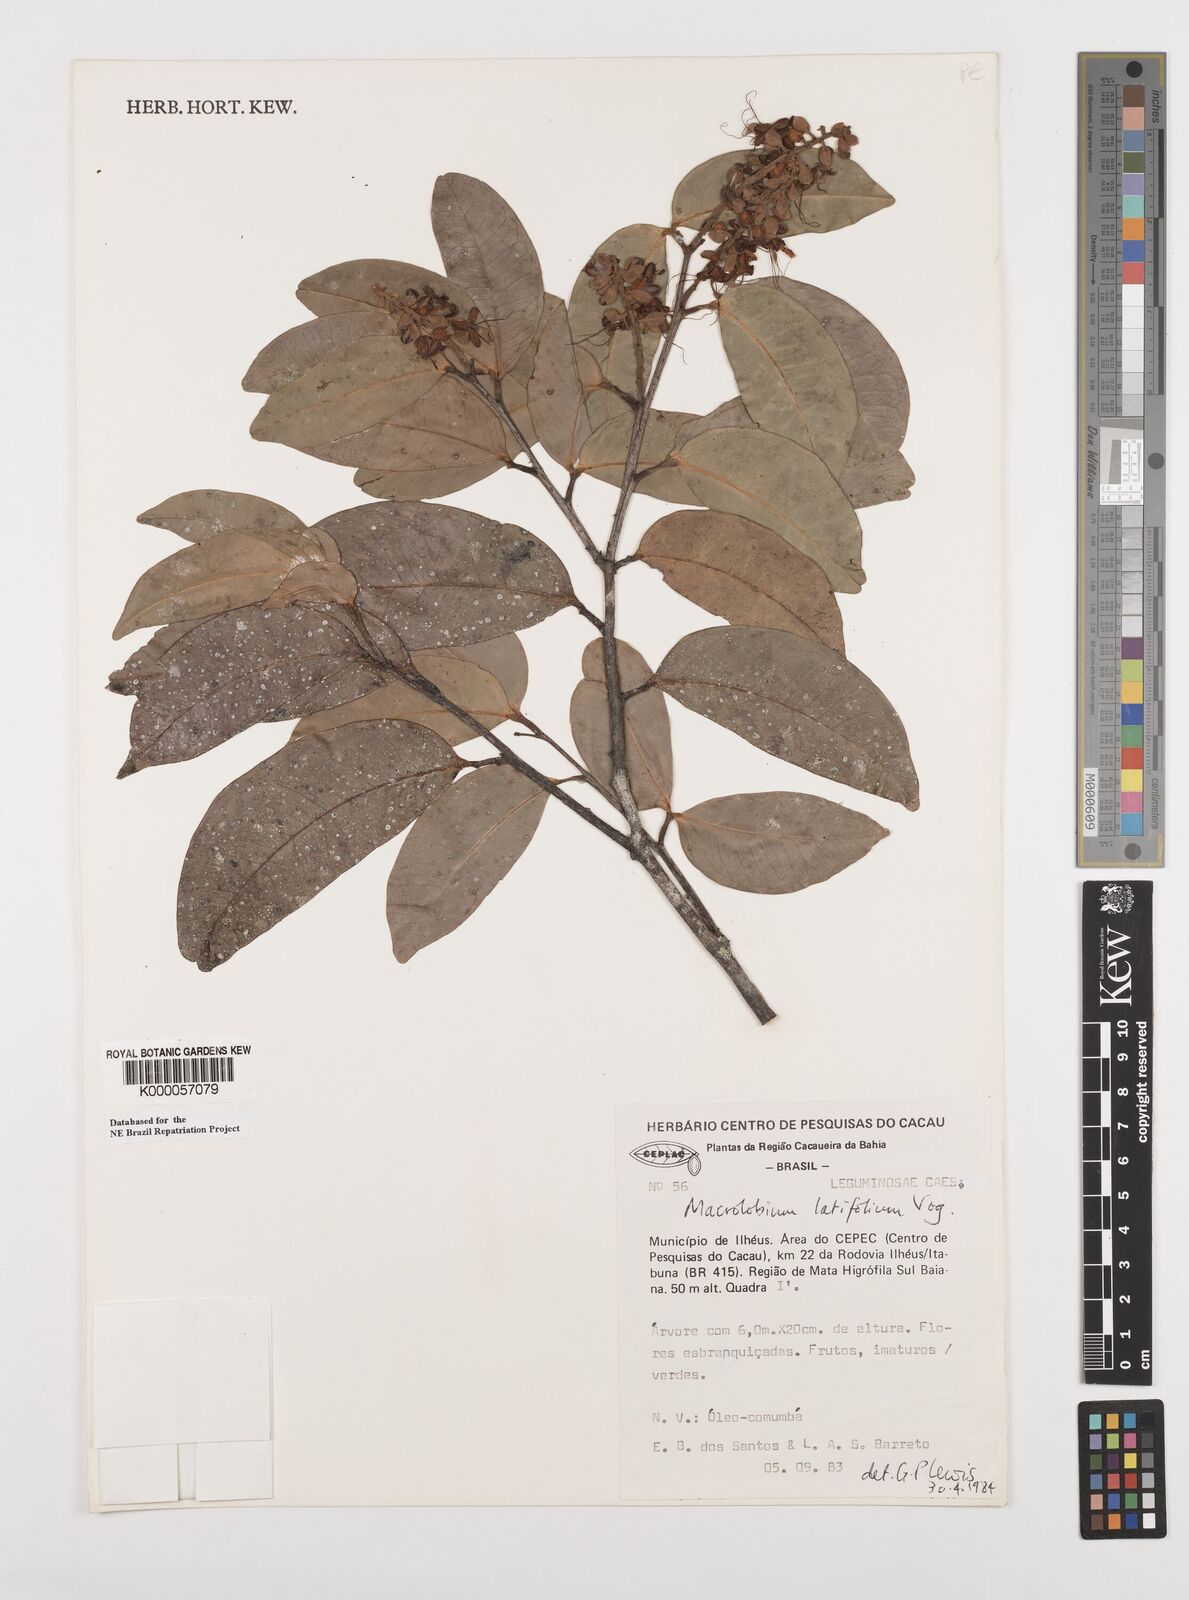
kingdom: Plantae
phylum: Tracheophyta
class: Magnoliopsida
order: Fabales
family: Fabaceae
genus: Macrolobium
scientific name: Macrolobium latifolium
